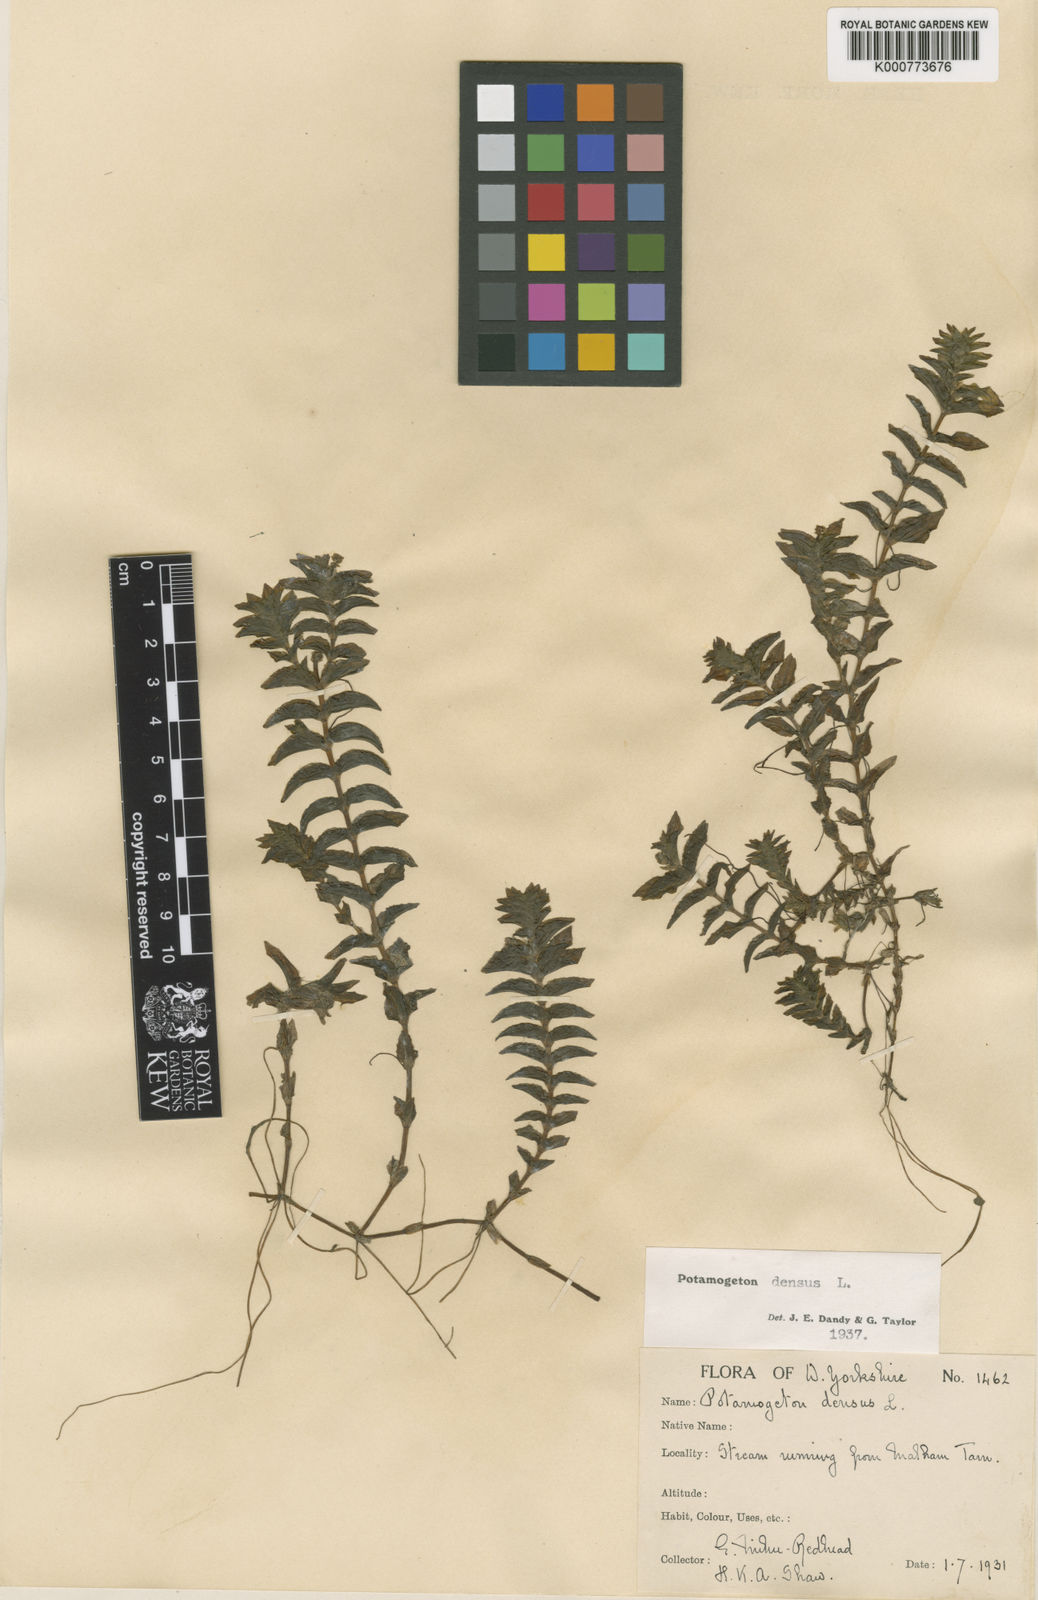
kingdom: Plantae
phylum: Tracheophyta
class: Liliopsida
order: Alismatales
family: Potamogetonaceae
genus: Groenlandia
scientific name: Groenlandia densa
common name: Opposite-leaved pondweed
